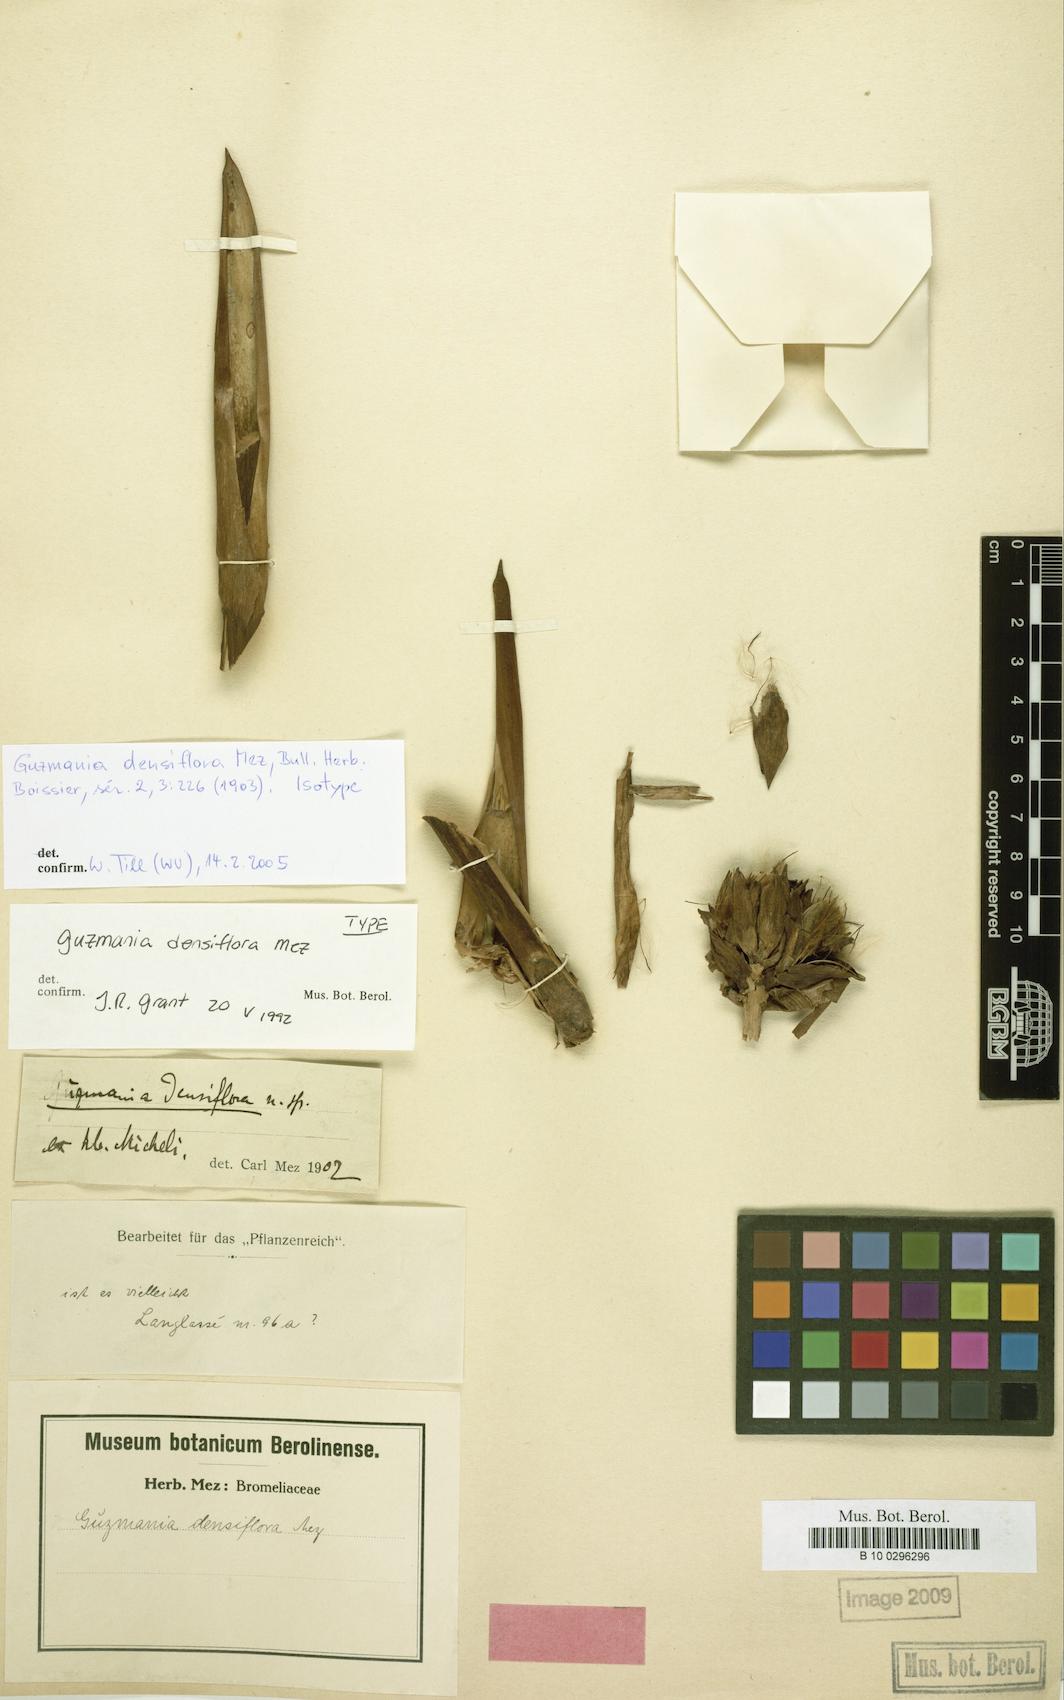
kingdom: Plantae
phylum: Tracheophyta
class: Liliopsida
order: Poales
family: Bromeliaceae
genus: Guzmania
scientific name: Guzmania densiflora
